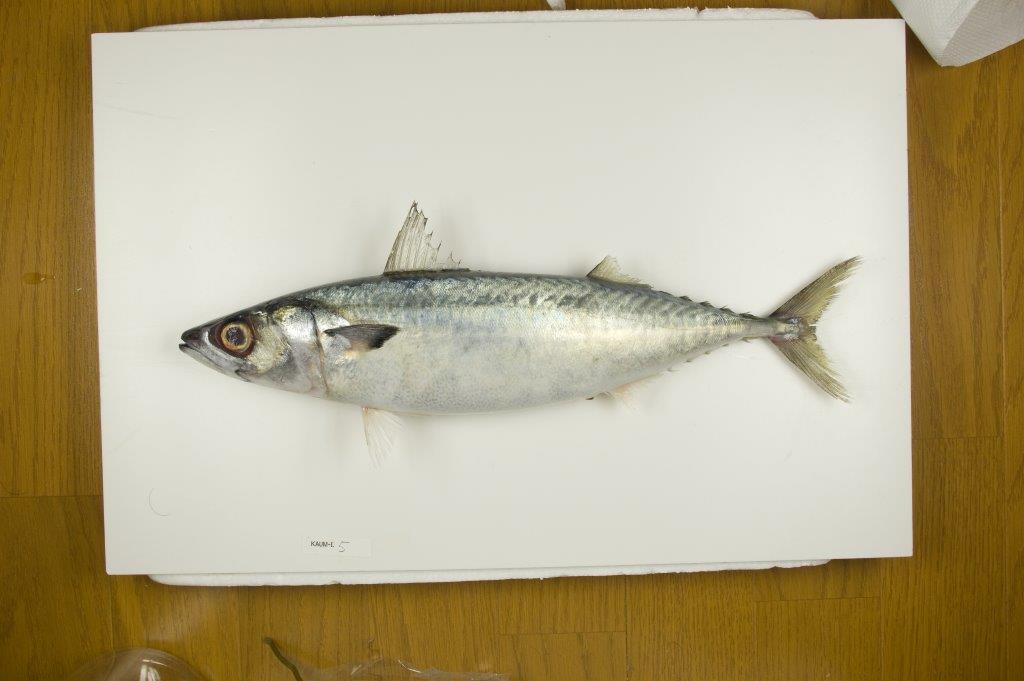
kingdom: Animalia
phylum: Chordata
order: Perciformes
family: Scombridae
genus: Scomber
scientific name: Scomber australasicus
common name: Blue mackerel
